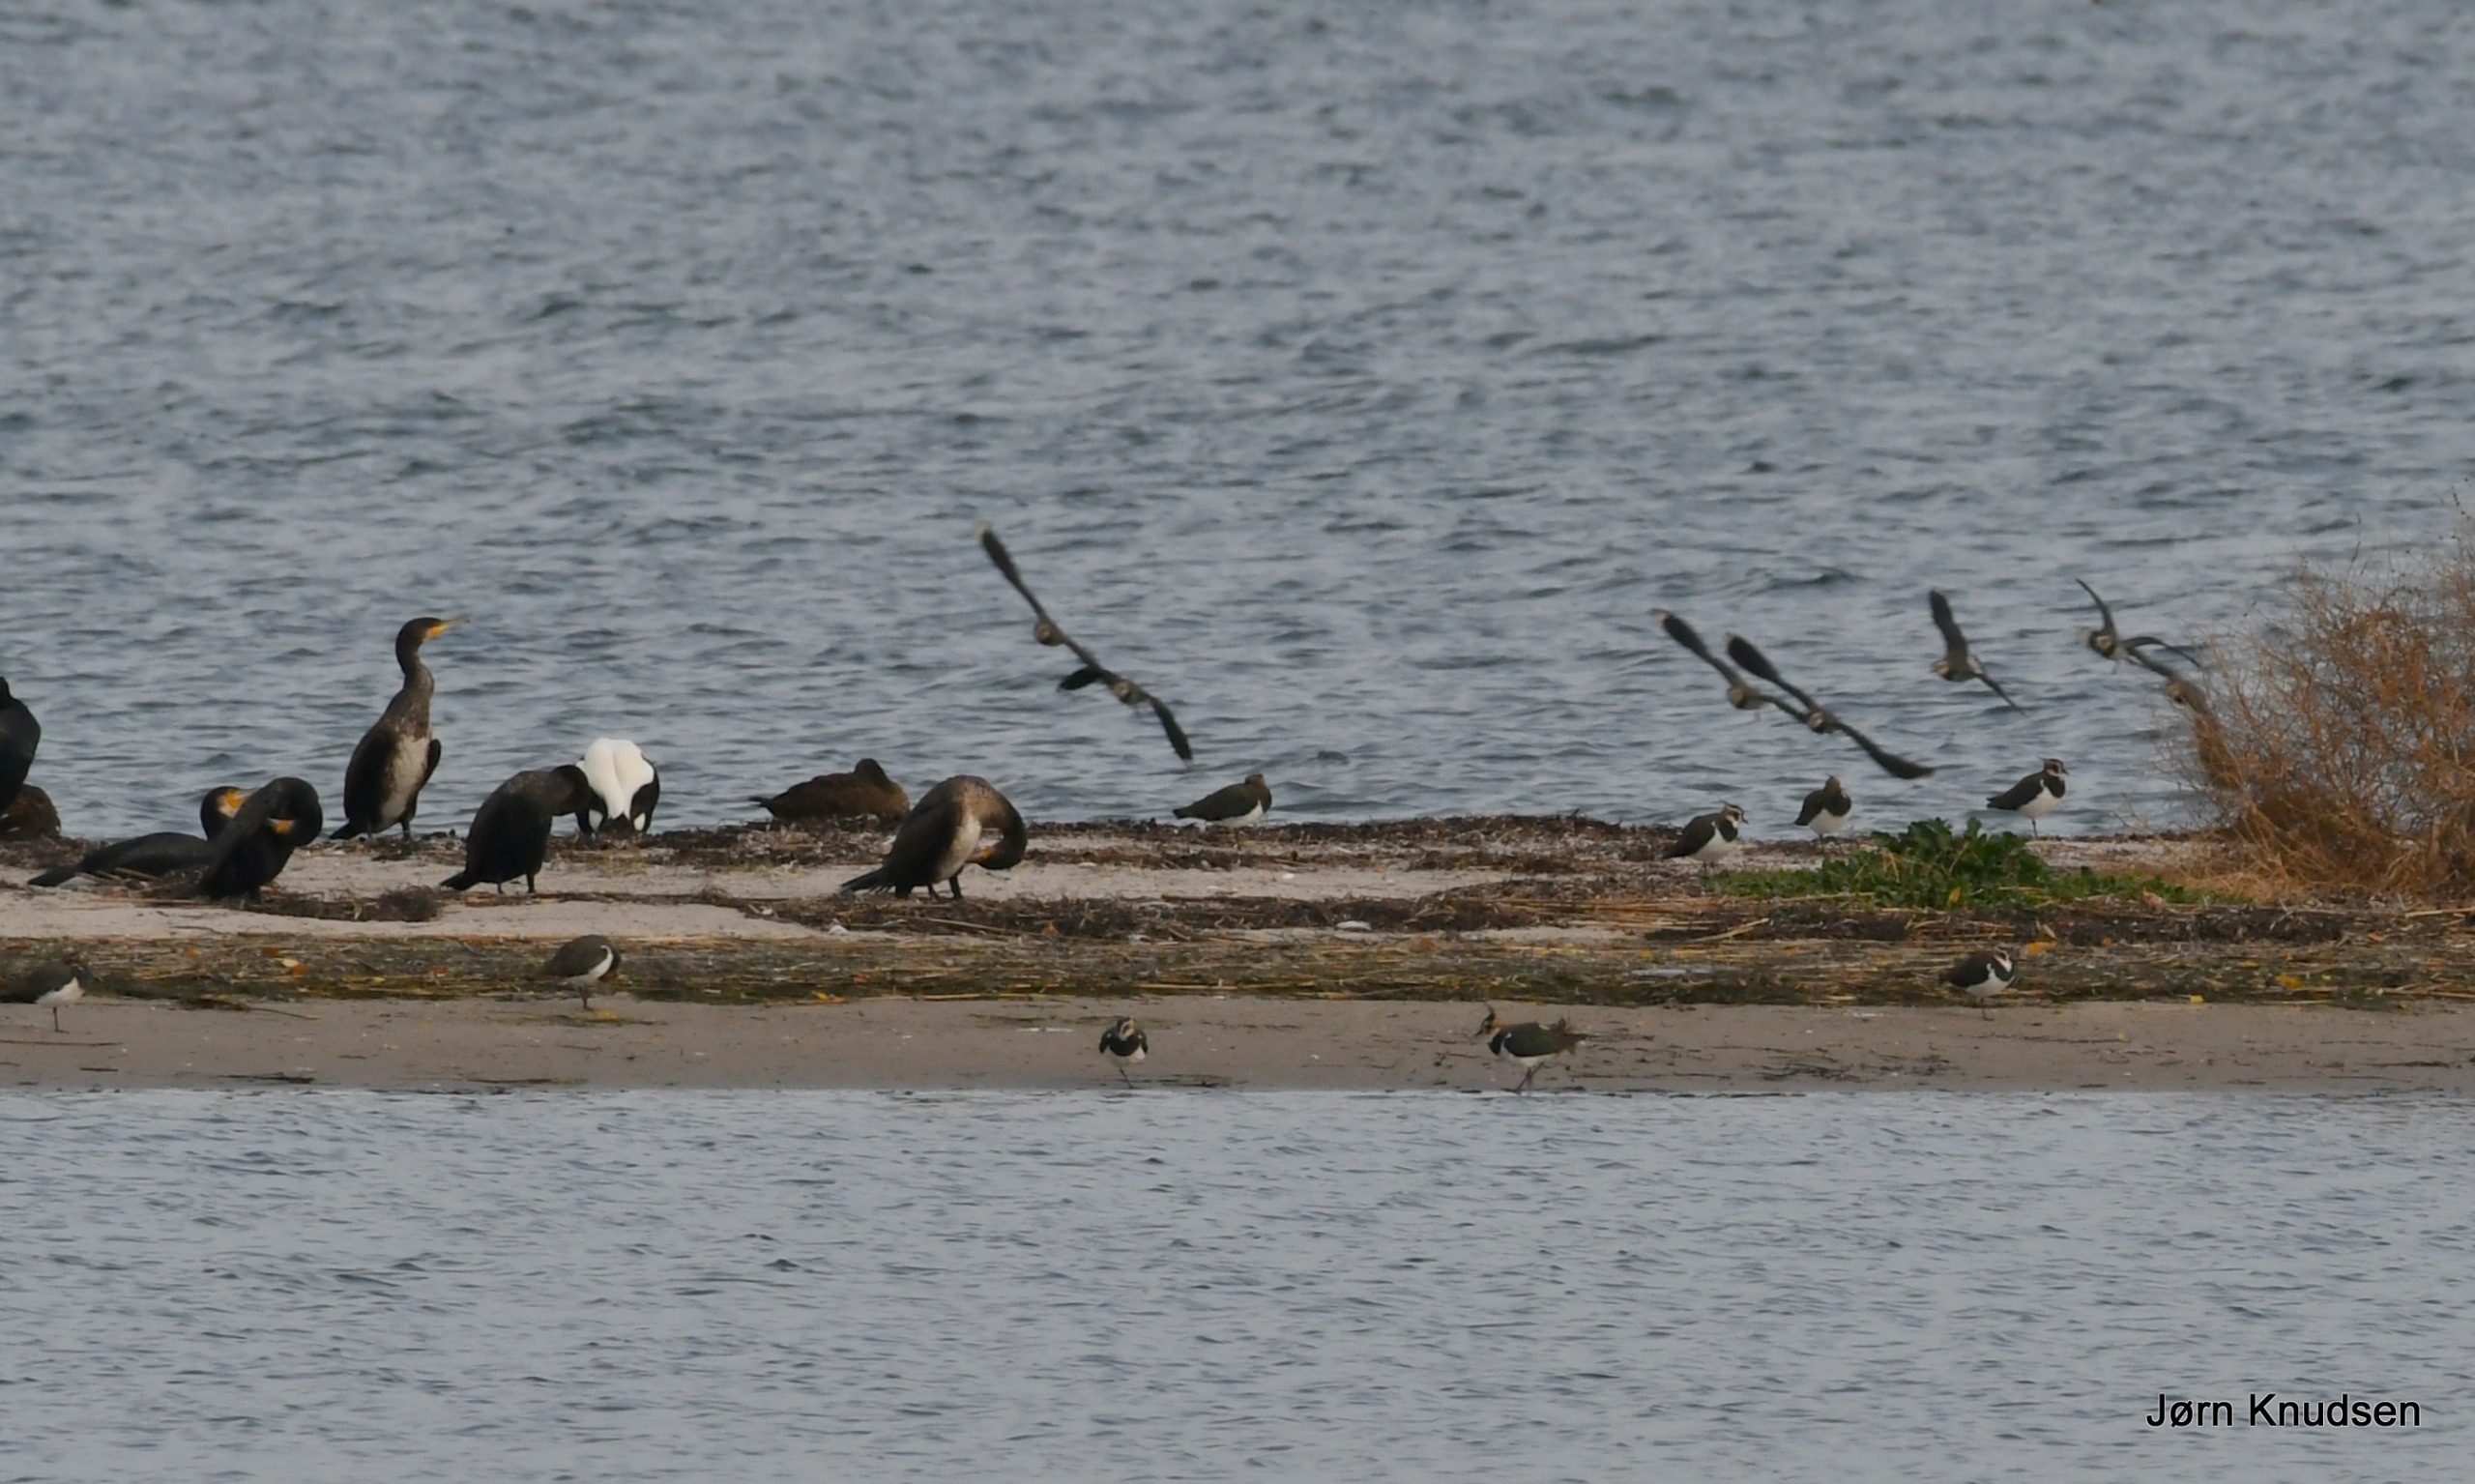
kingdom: Animalia
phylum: Chordata
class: Aves
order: Charadriiformes
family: Charadriidae
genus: Vanellus
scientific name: Vanellus vanellus
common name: Vibe
